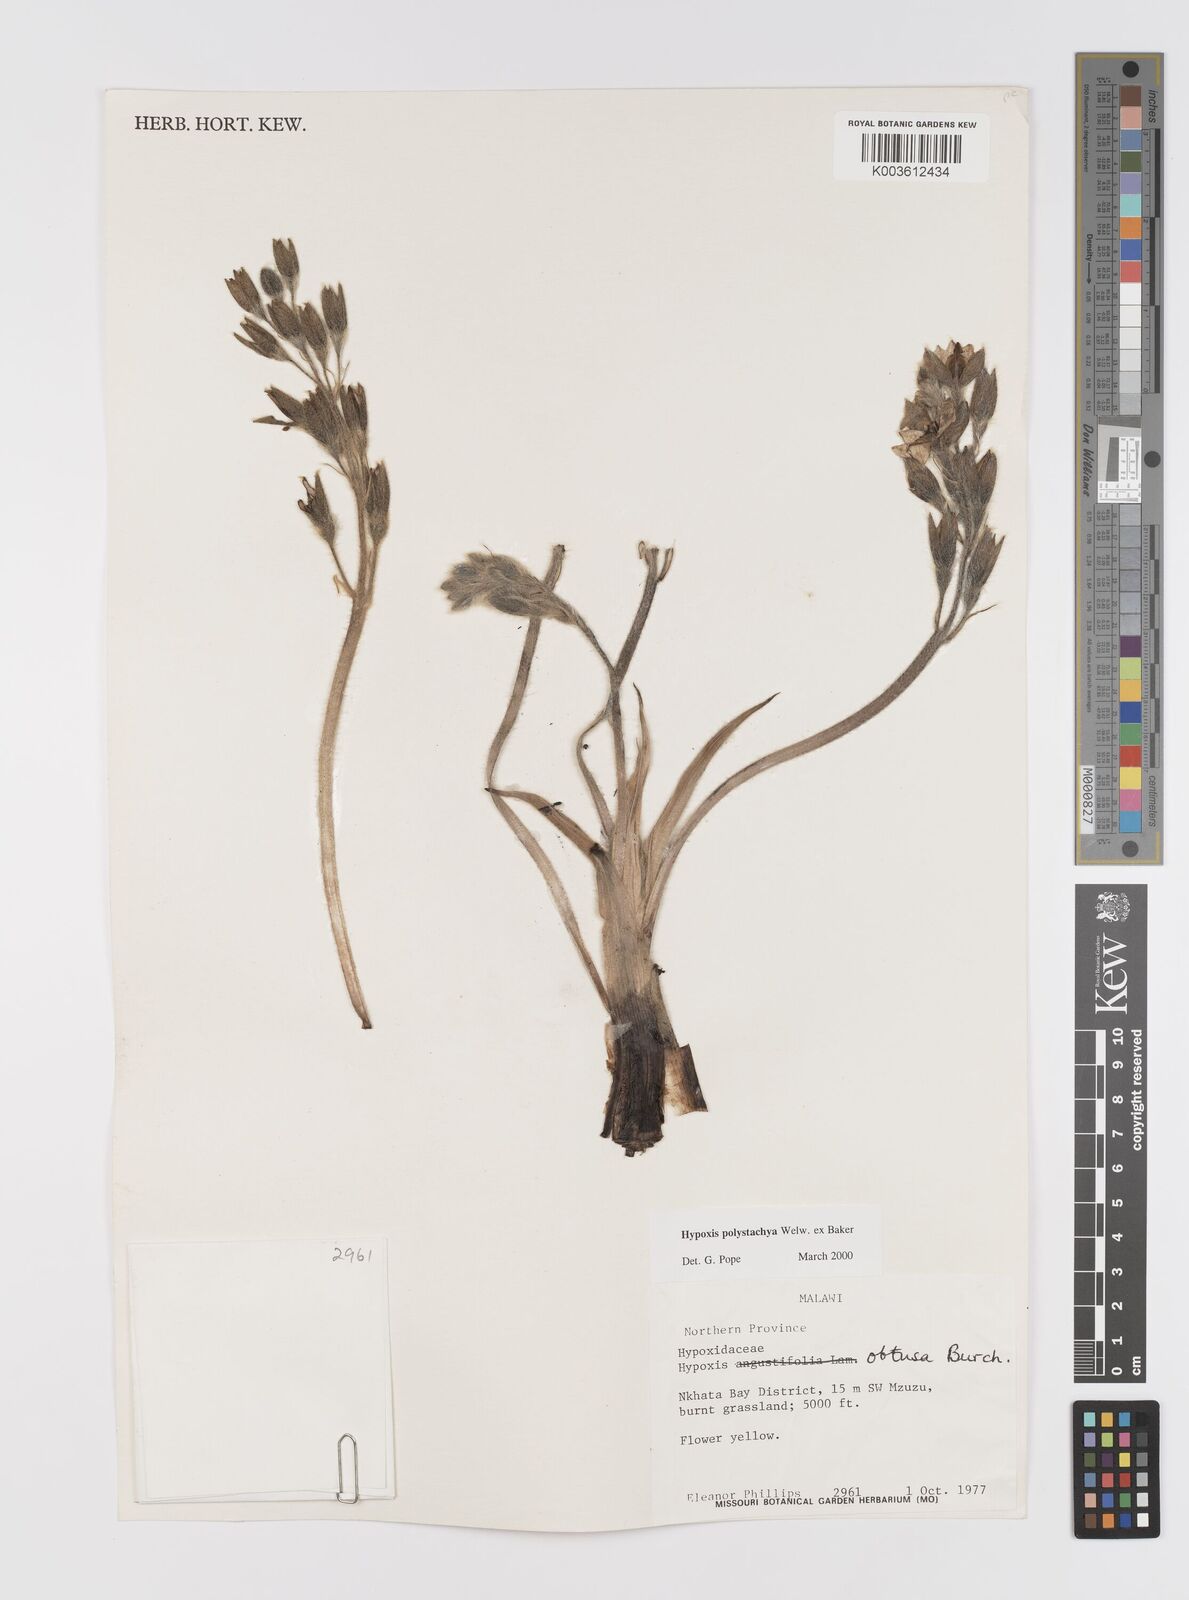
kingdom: Plantae
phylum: Tracheophyta
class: Liliopsida
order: Asparagales
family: Hypoxidaceae
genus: Hypoxis
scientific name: Hypoxis polystachya
